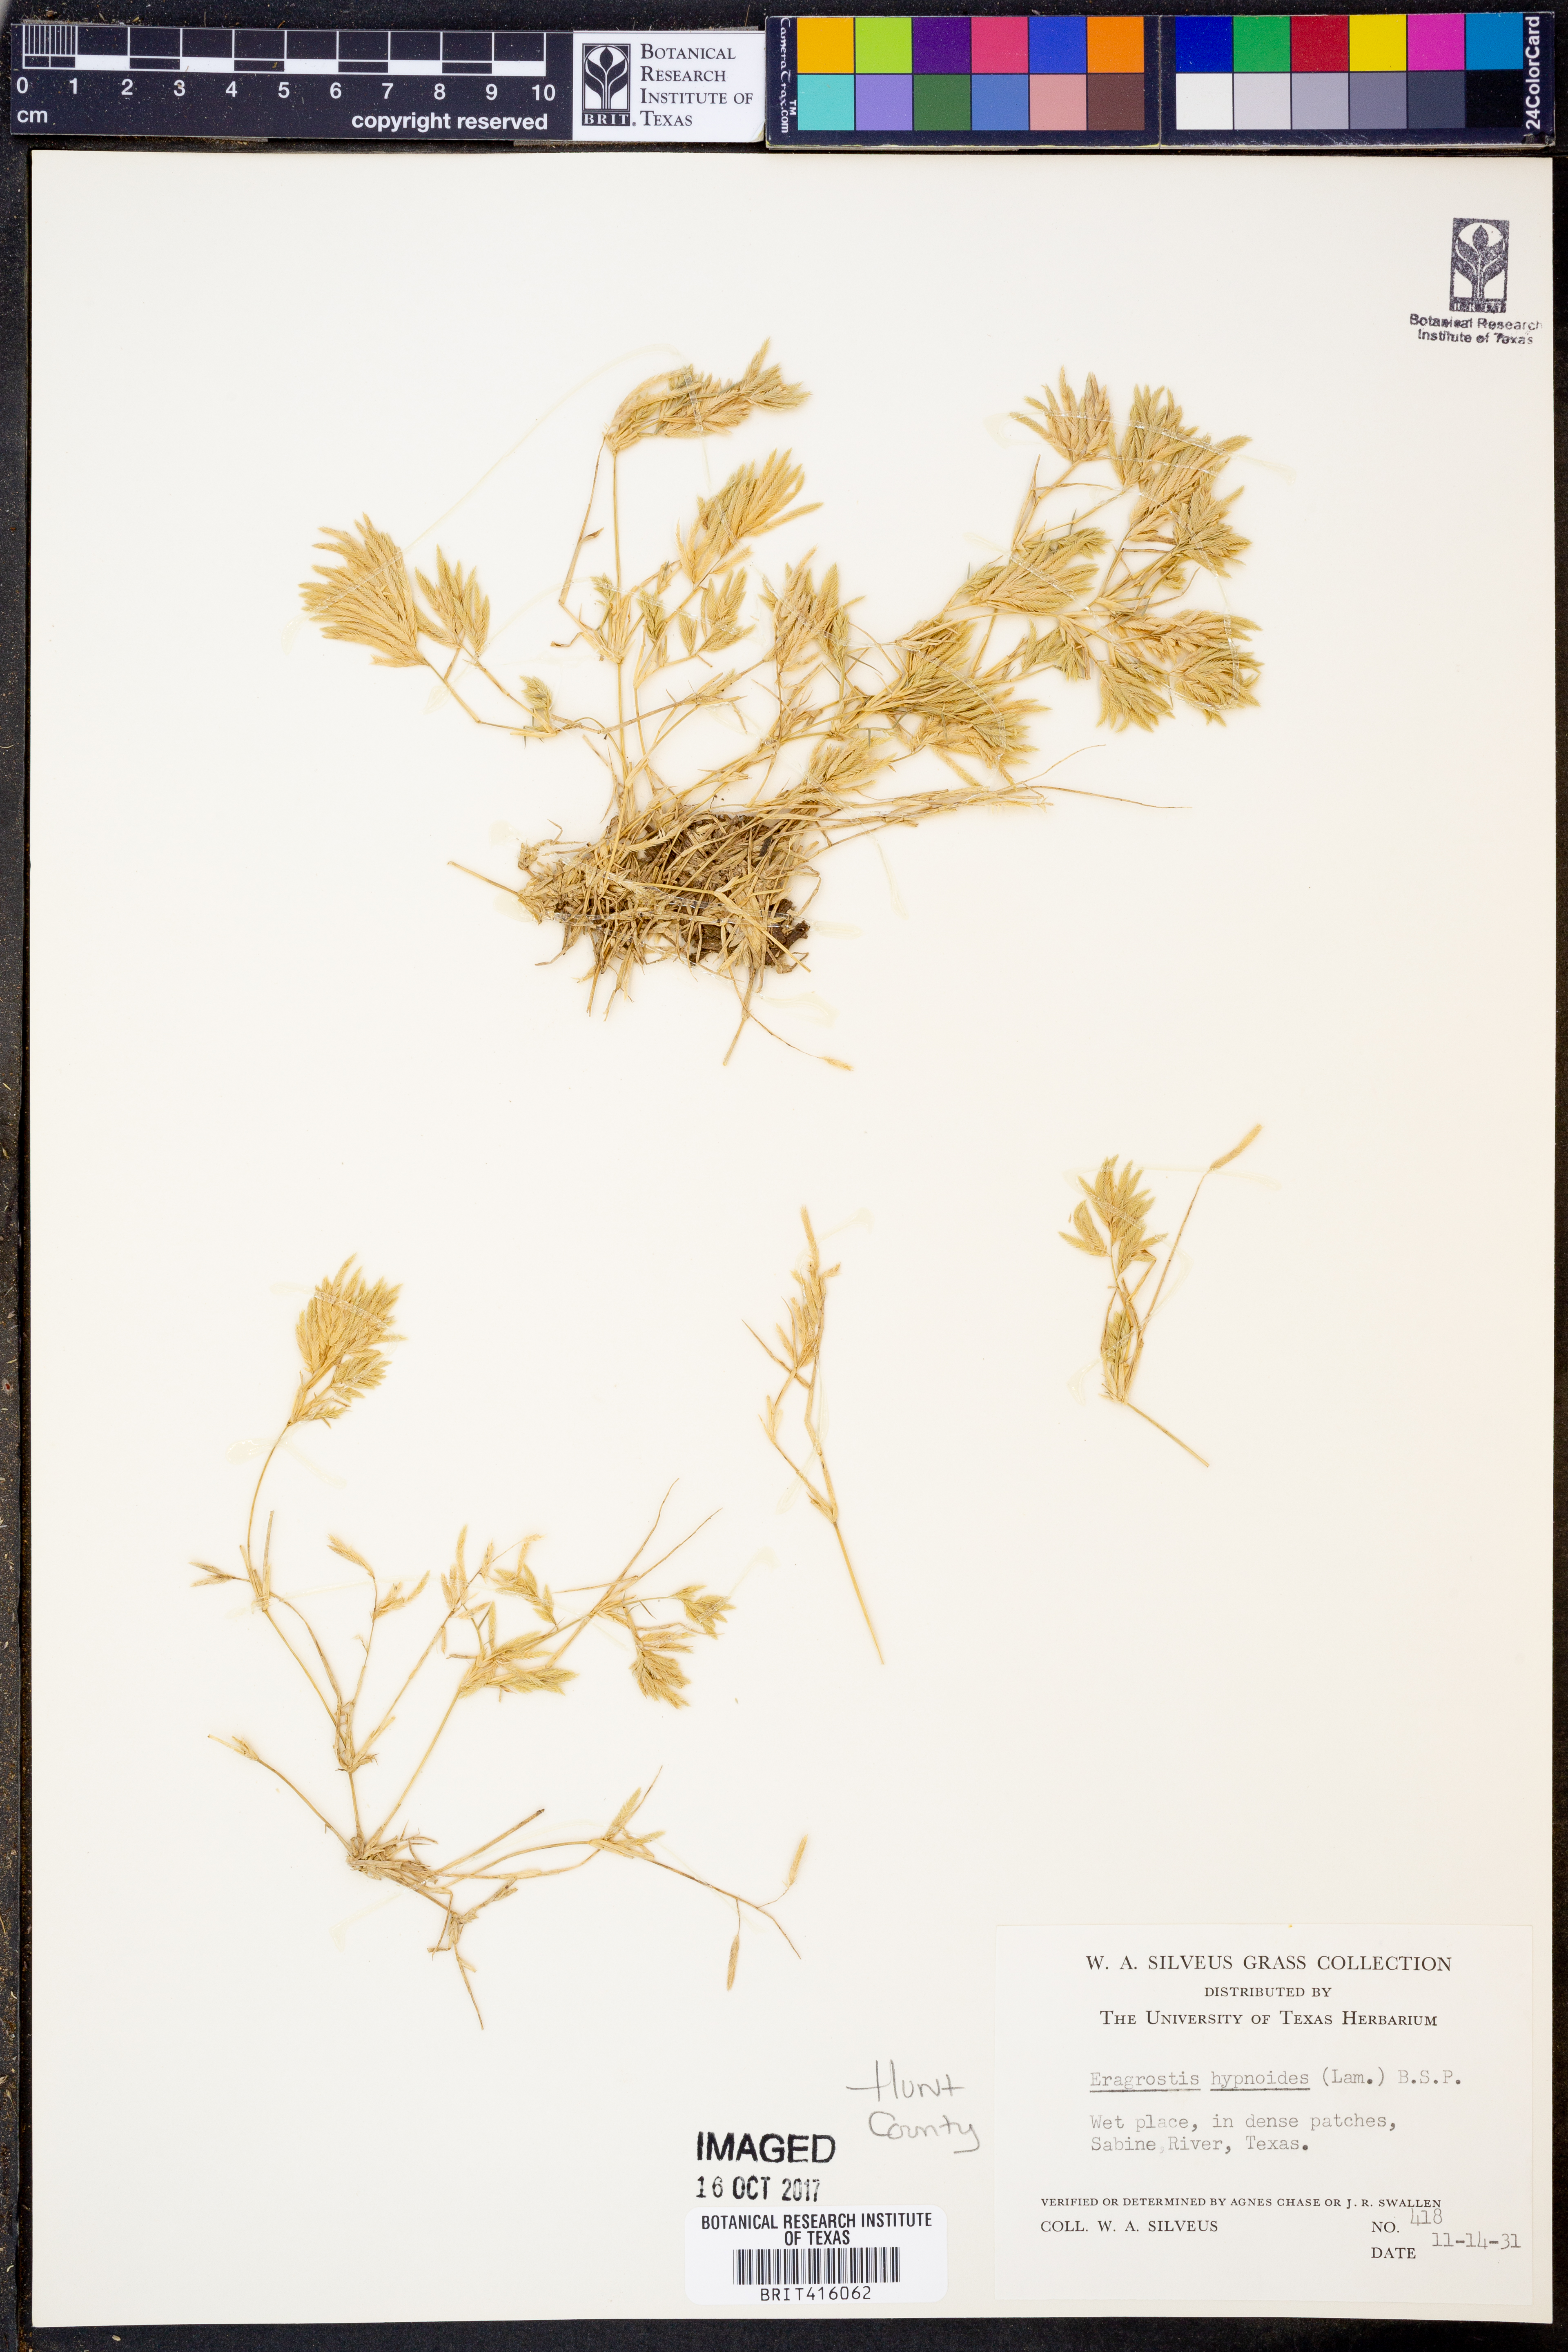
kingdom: Plantae
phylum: Tracheophyta
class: Liliopsida
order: Poales
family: Poaceae
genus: Eragrostis
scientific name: Eragrostis hypnoides
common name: Creeping love grass
